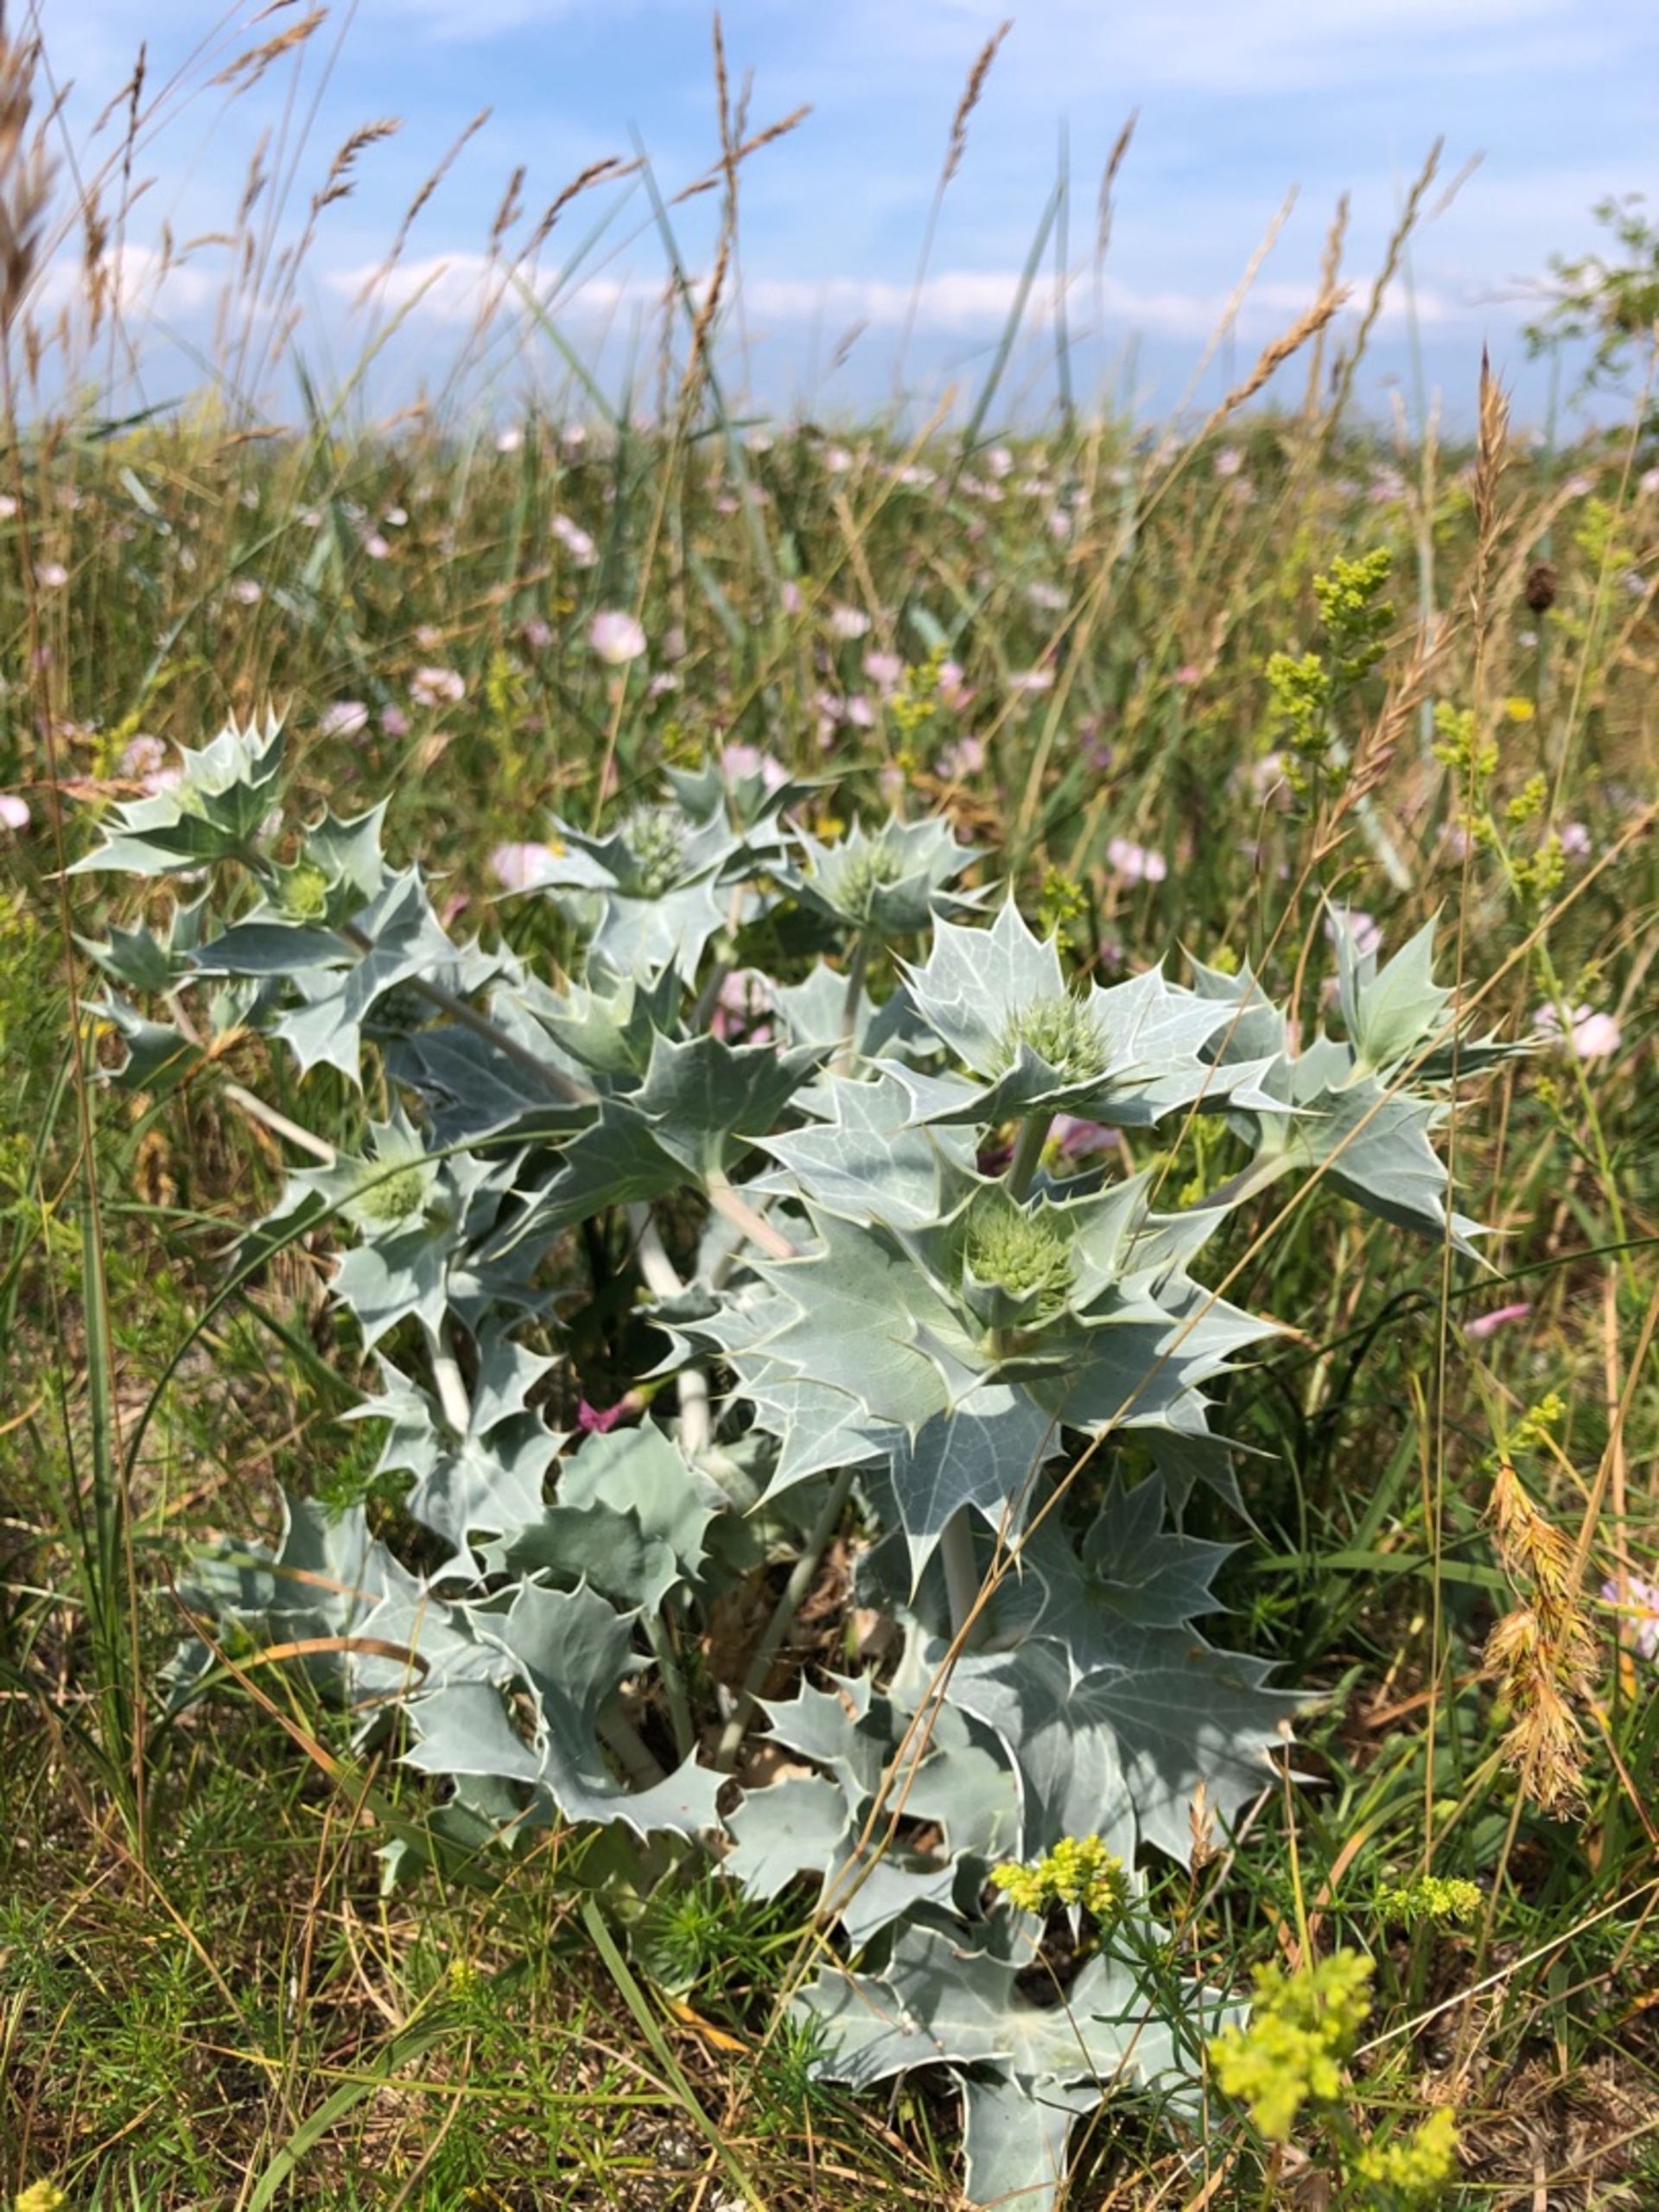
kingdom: Plantae
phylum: Tracheophyta
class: Magnoliopsida
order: Apiales
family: Apiaceae
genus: Eryngium
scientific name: Eryngium maritimum
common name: Strand-mandstro
